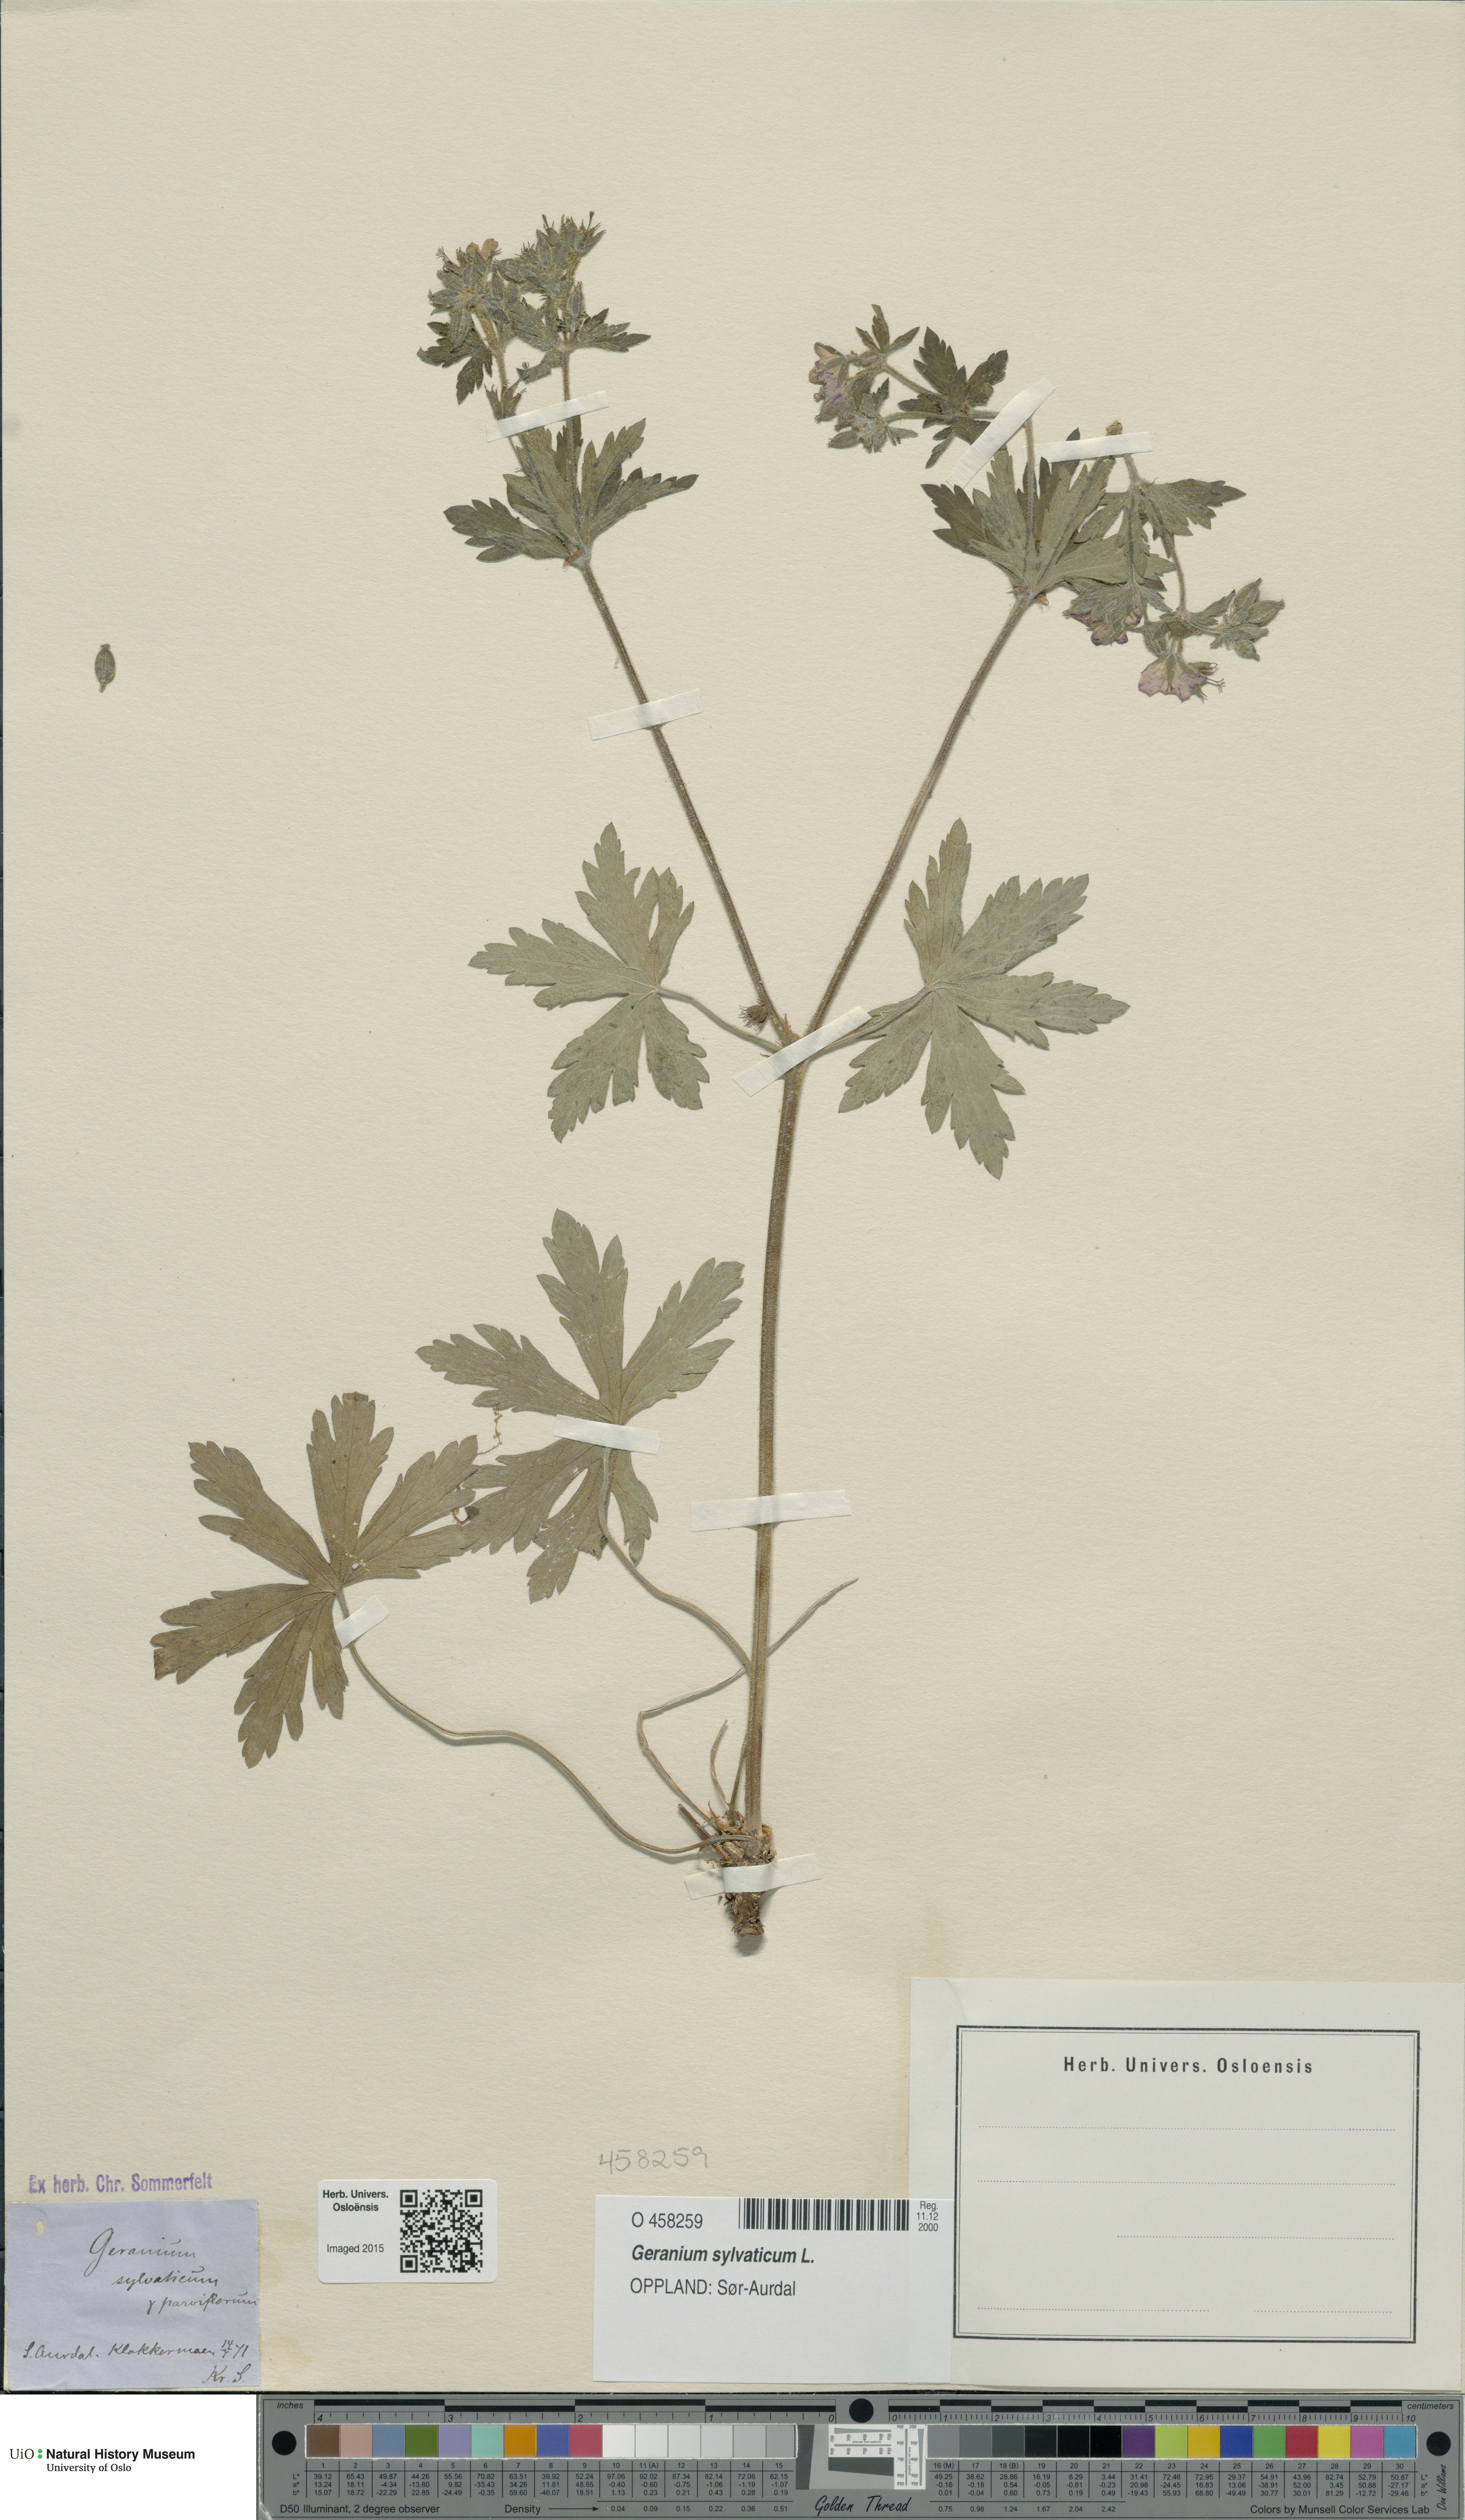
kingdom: Plantae
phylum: Tracheophyta
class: Magnoliopsida
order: Geraniales
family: Geraniaceae
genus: Geranium
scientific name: Geranium sylvaticum
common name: Wood crane's-bill
